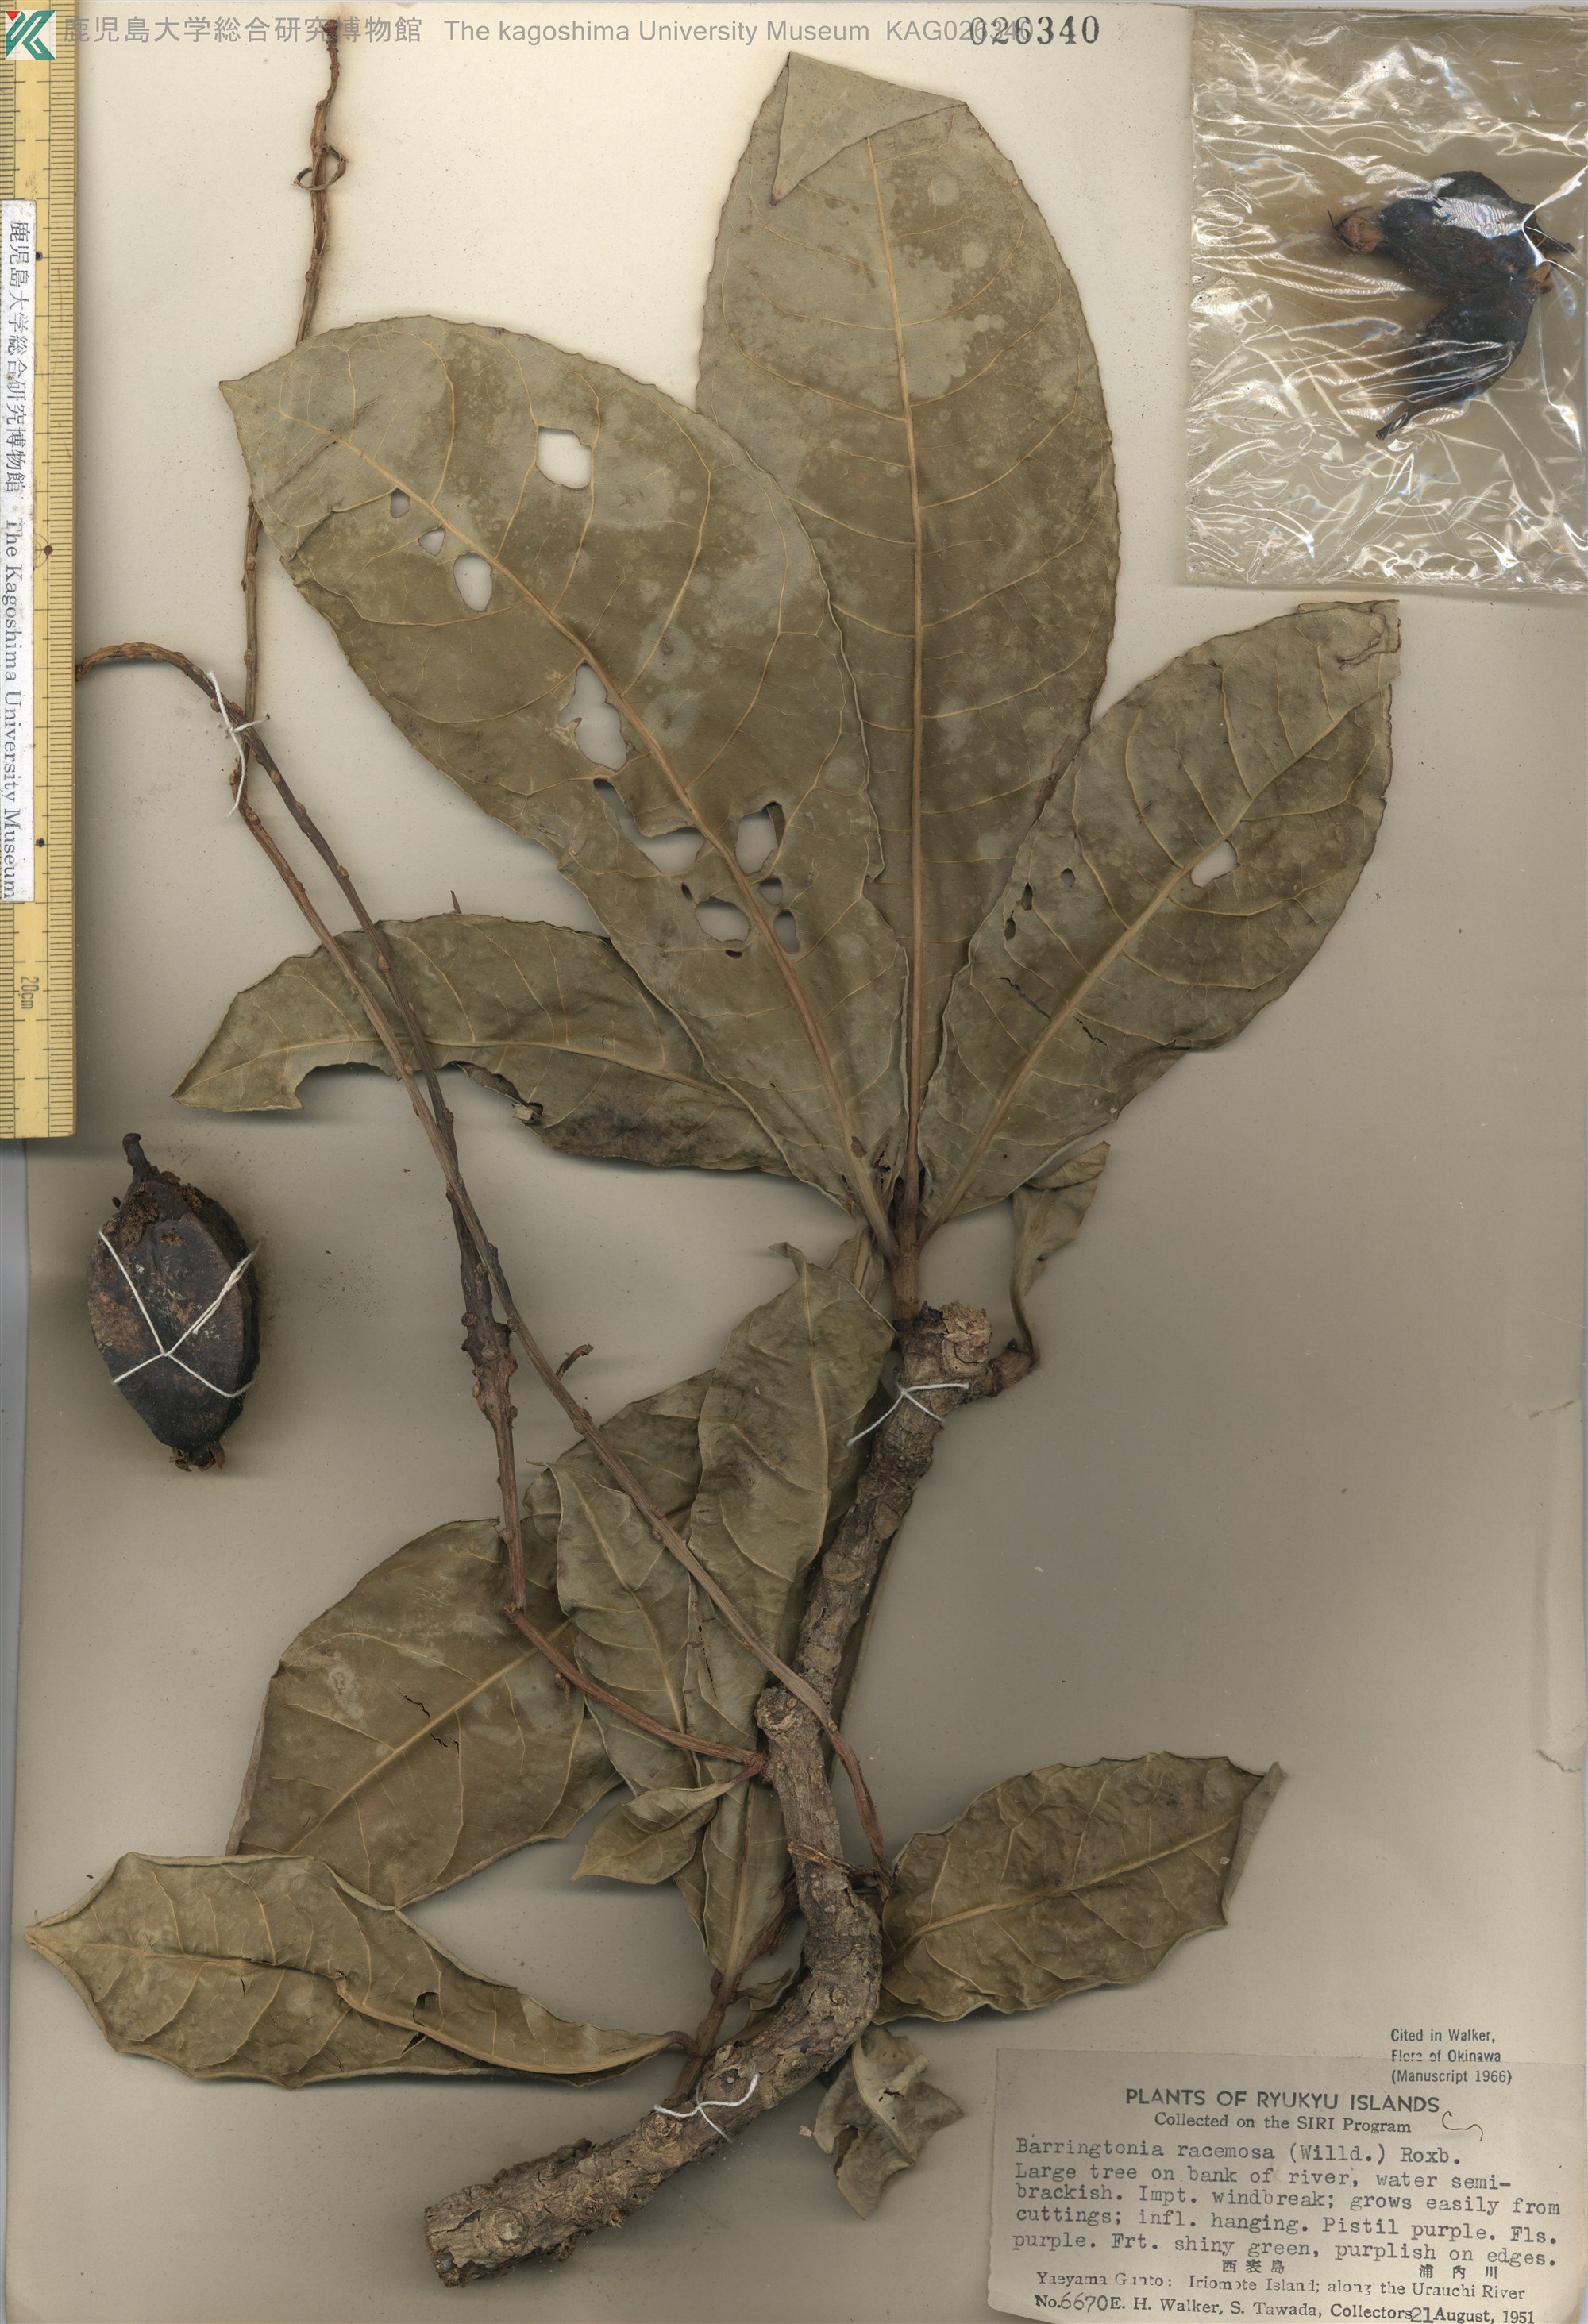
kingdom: Plantae
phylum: Tracheophyta
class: Magnoliopsida
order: Ericales
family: Lecythidaceae
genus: Barringtonia
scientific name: Barringtonia racemosa
